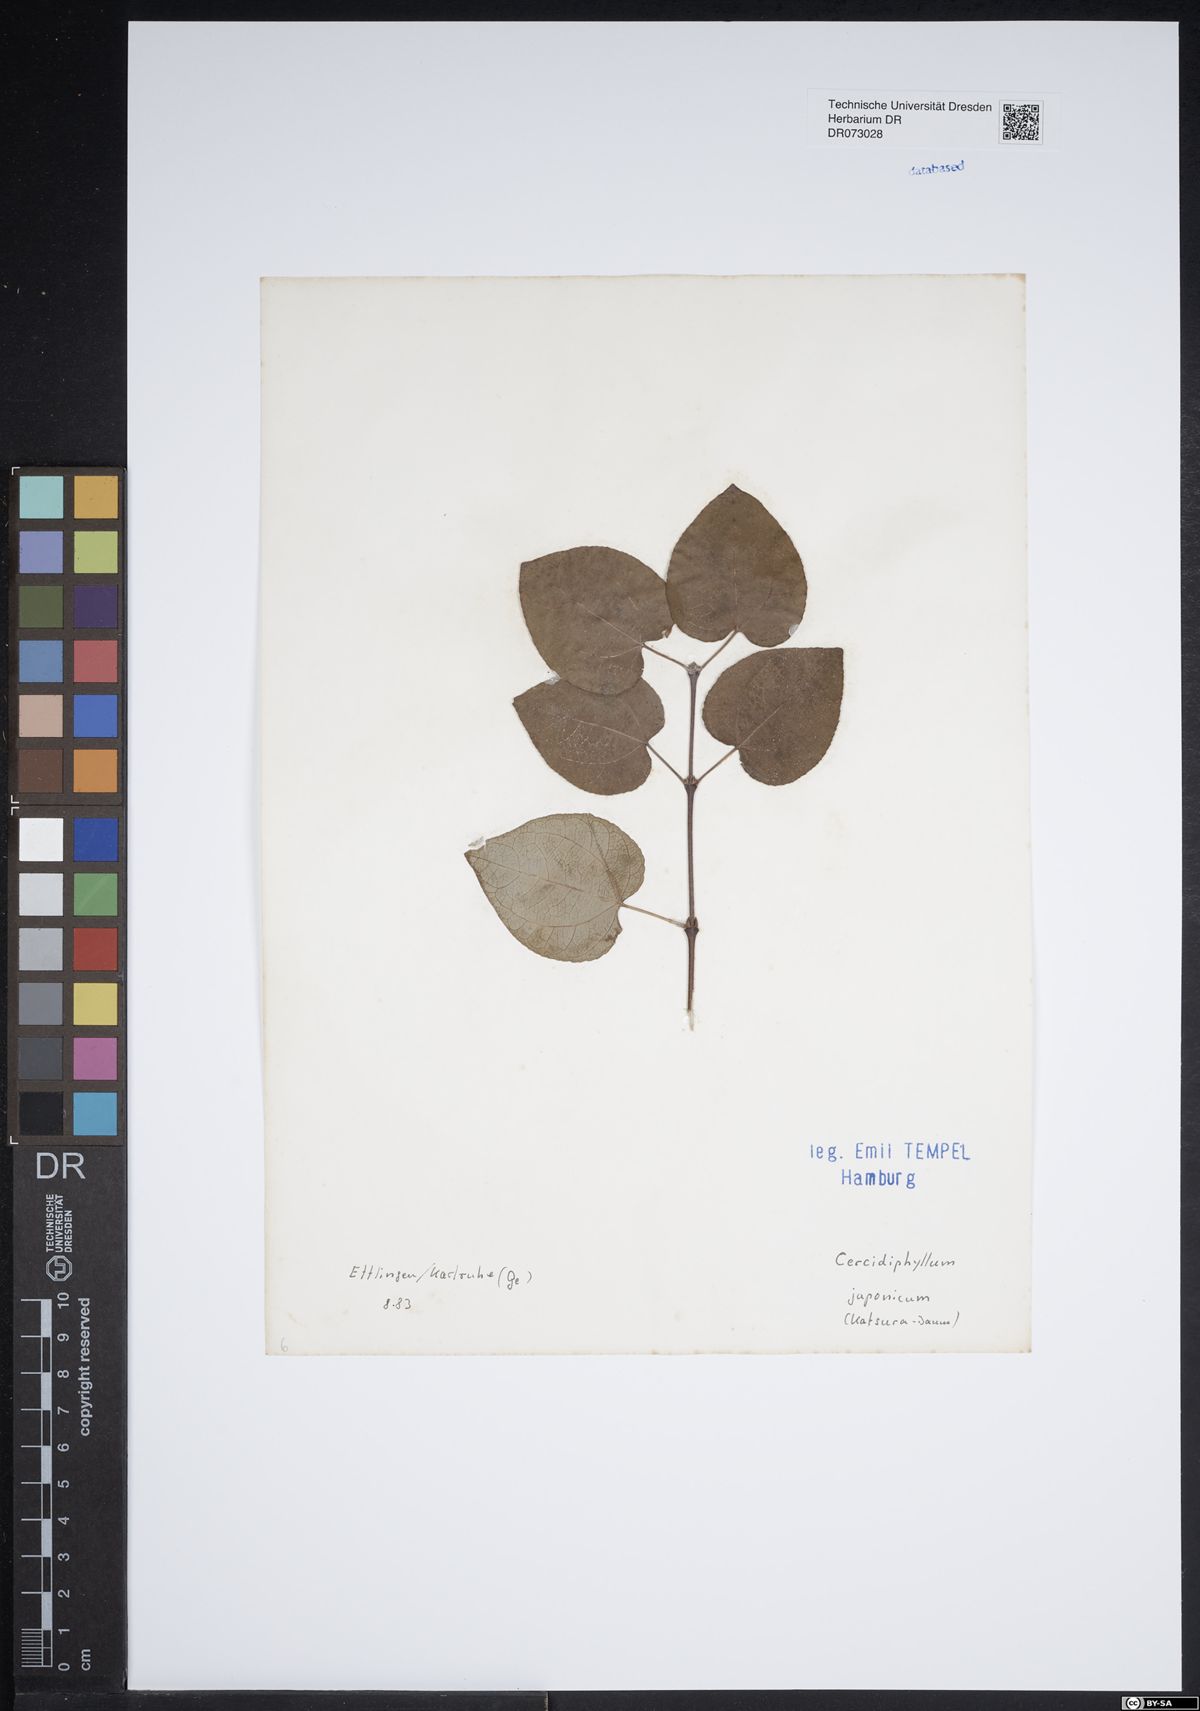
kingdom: Plantae
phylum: Tracheophyta
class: Magnoliopsida
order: Saxifragales
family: Cercidiphyllaceae
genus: Cercidiphyllum
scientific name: Cercidiphyllum japonicum
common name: Katsura tree
